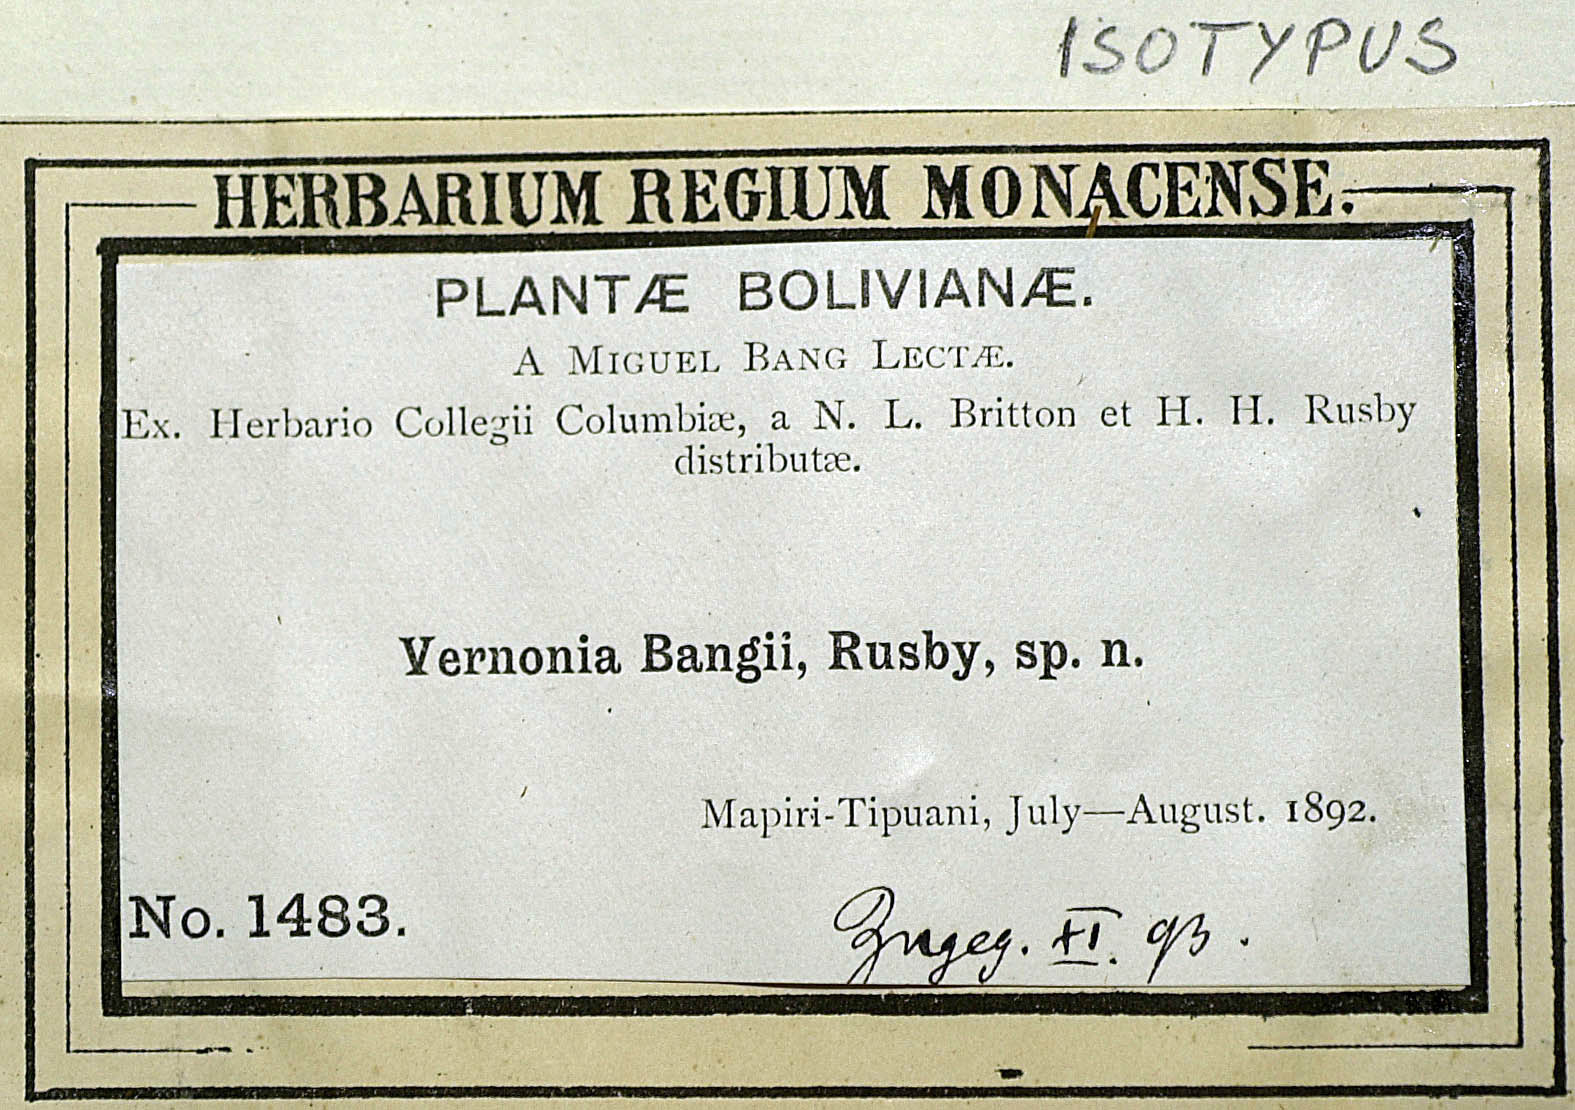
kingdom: Plantae
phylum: Tracheophyta
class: Magnoliopsida
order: Asterales
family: Asteraceae
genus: Vernonanthura
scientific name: Vernonanthura patens
